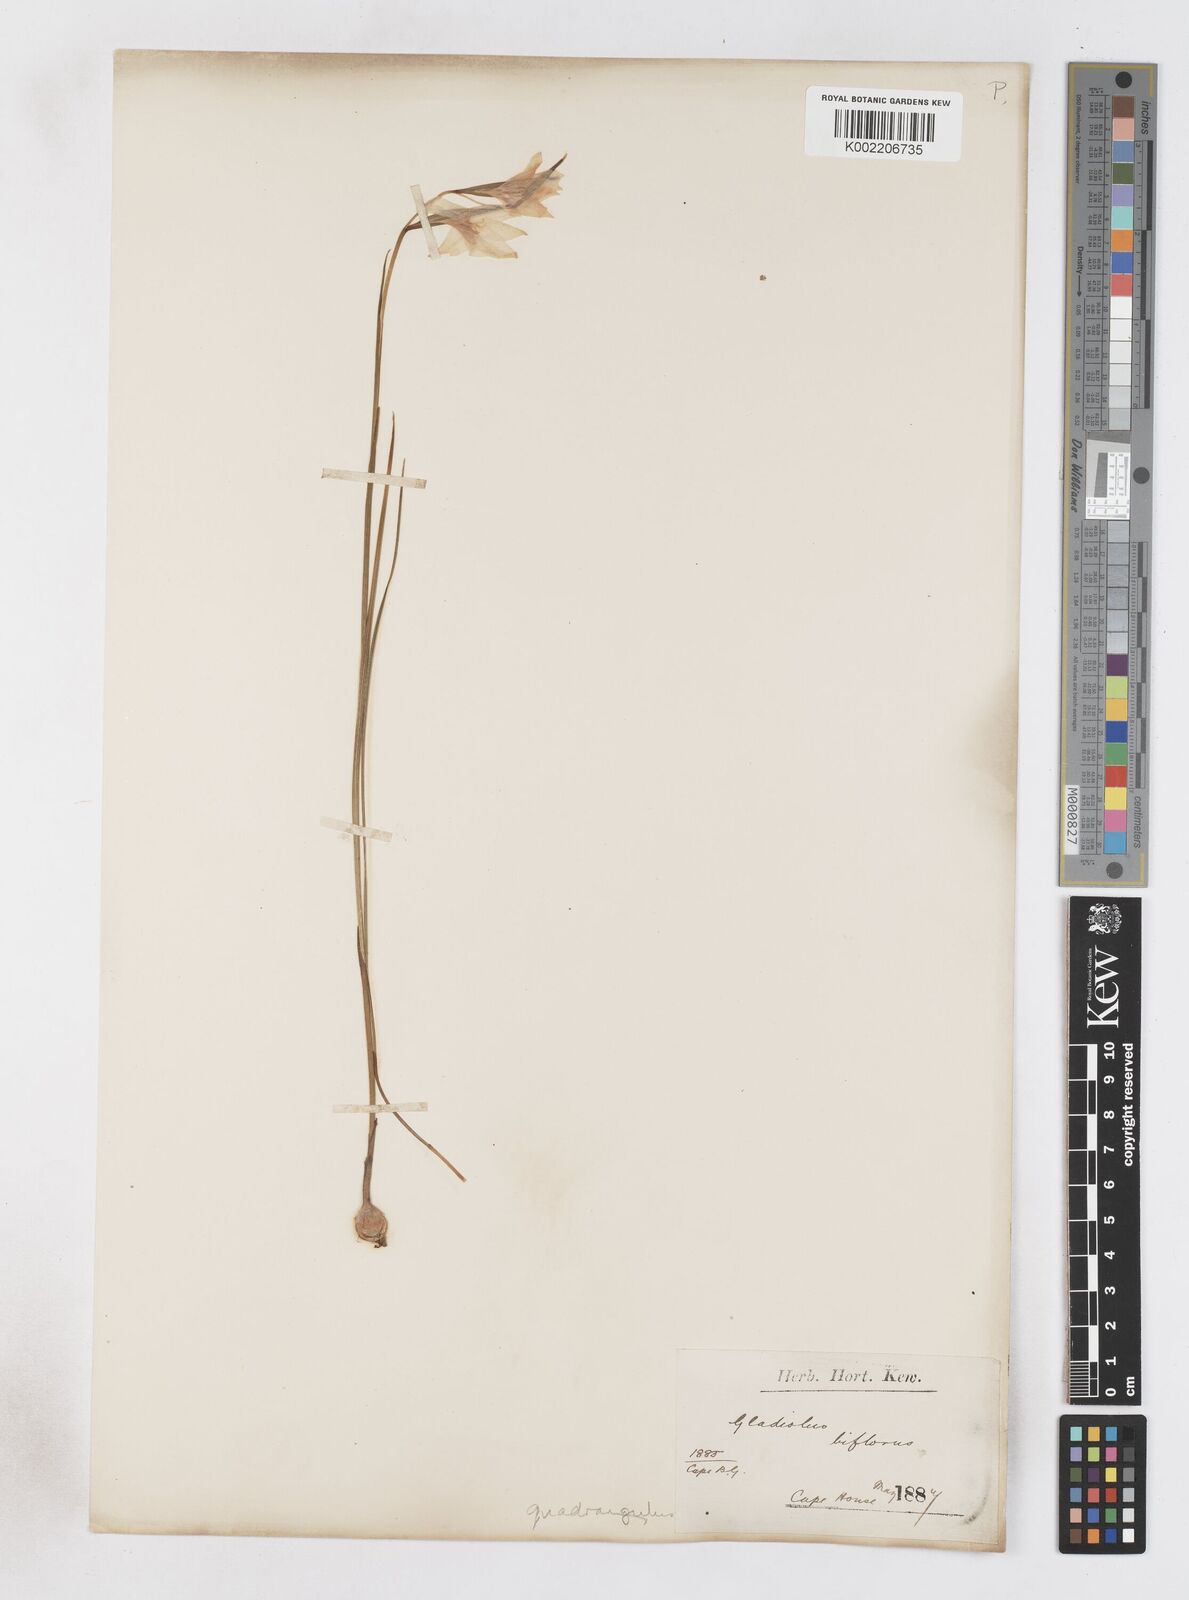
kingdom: Plantae
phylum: Tracheophyta
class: Liliopsida
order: Asparagales
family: Iridaceae
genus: Gladiolus
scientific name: Gladiolus quadrangulus
